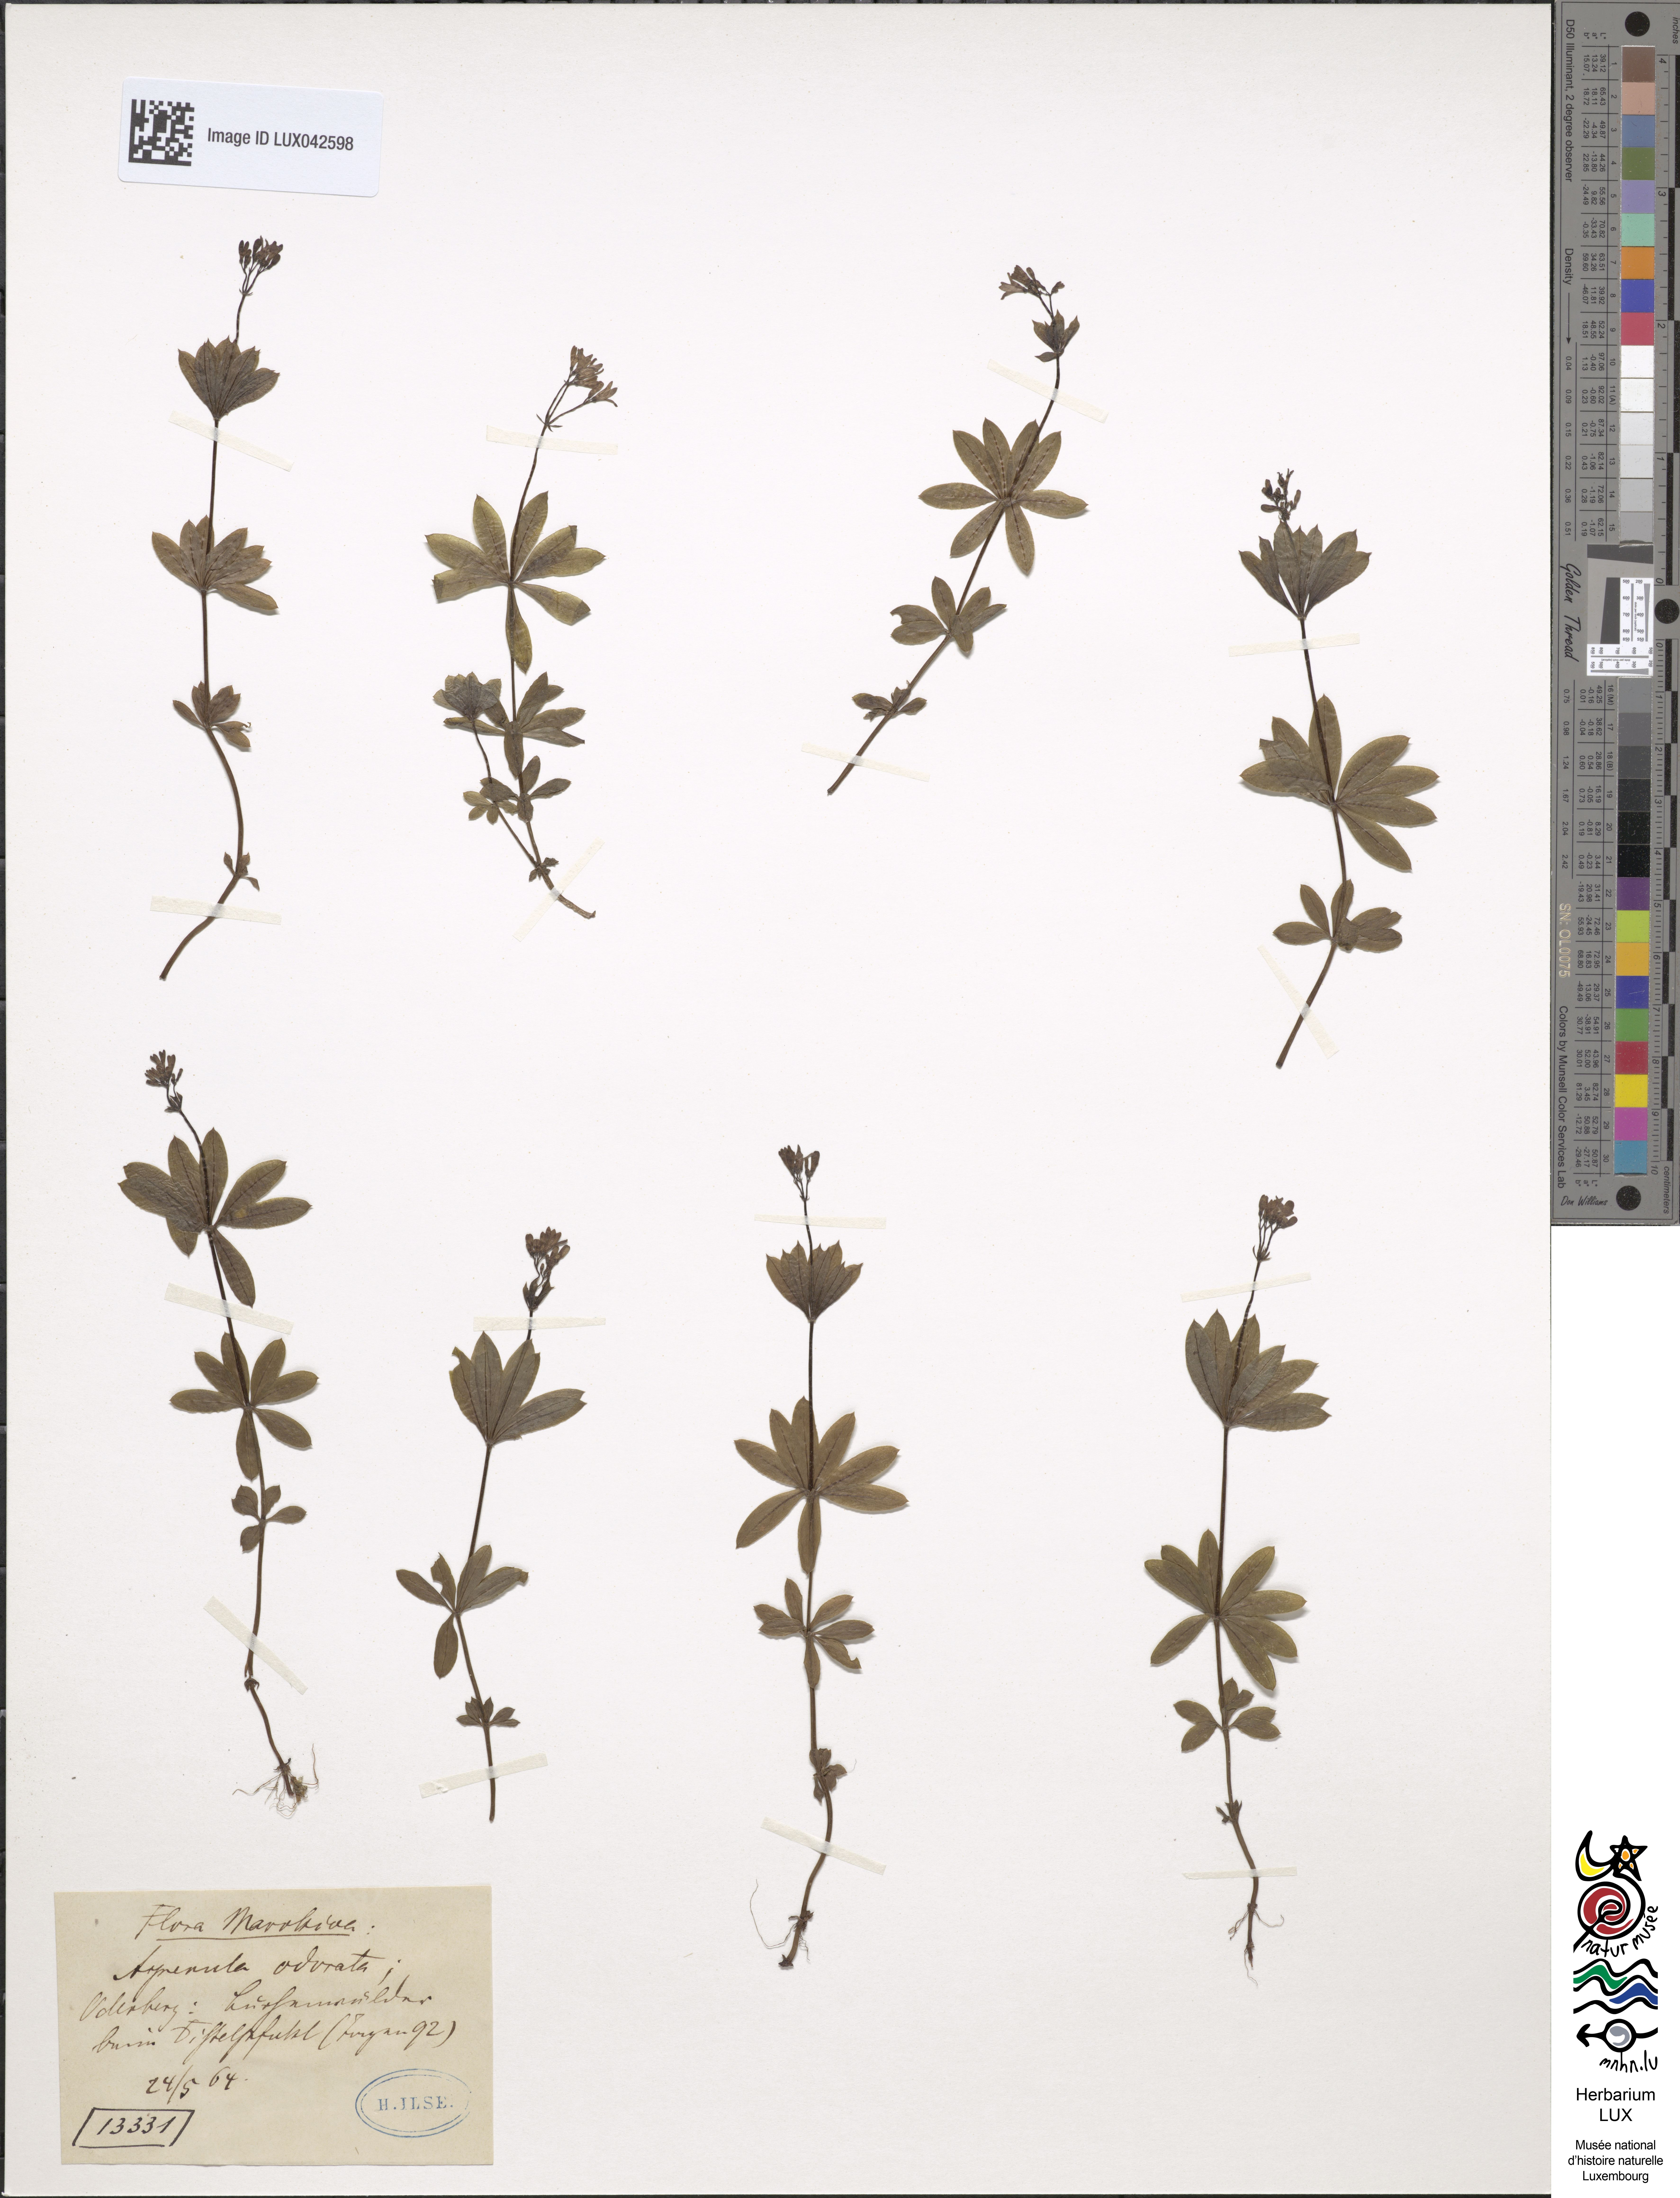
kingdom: Plantae
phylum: Tracheophyta
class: Magnoliopsida
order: Gentianales
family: Rubiaceae
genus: Galium
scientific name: Galium odoratum
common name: Sweet woodruff
